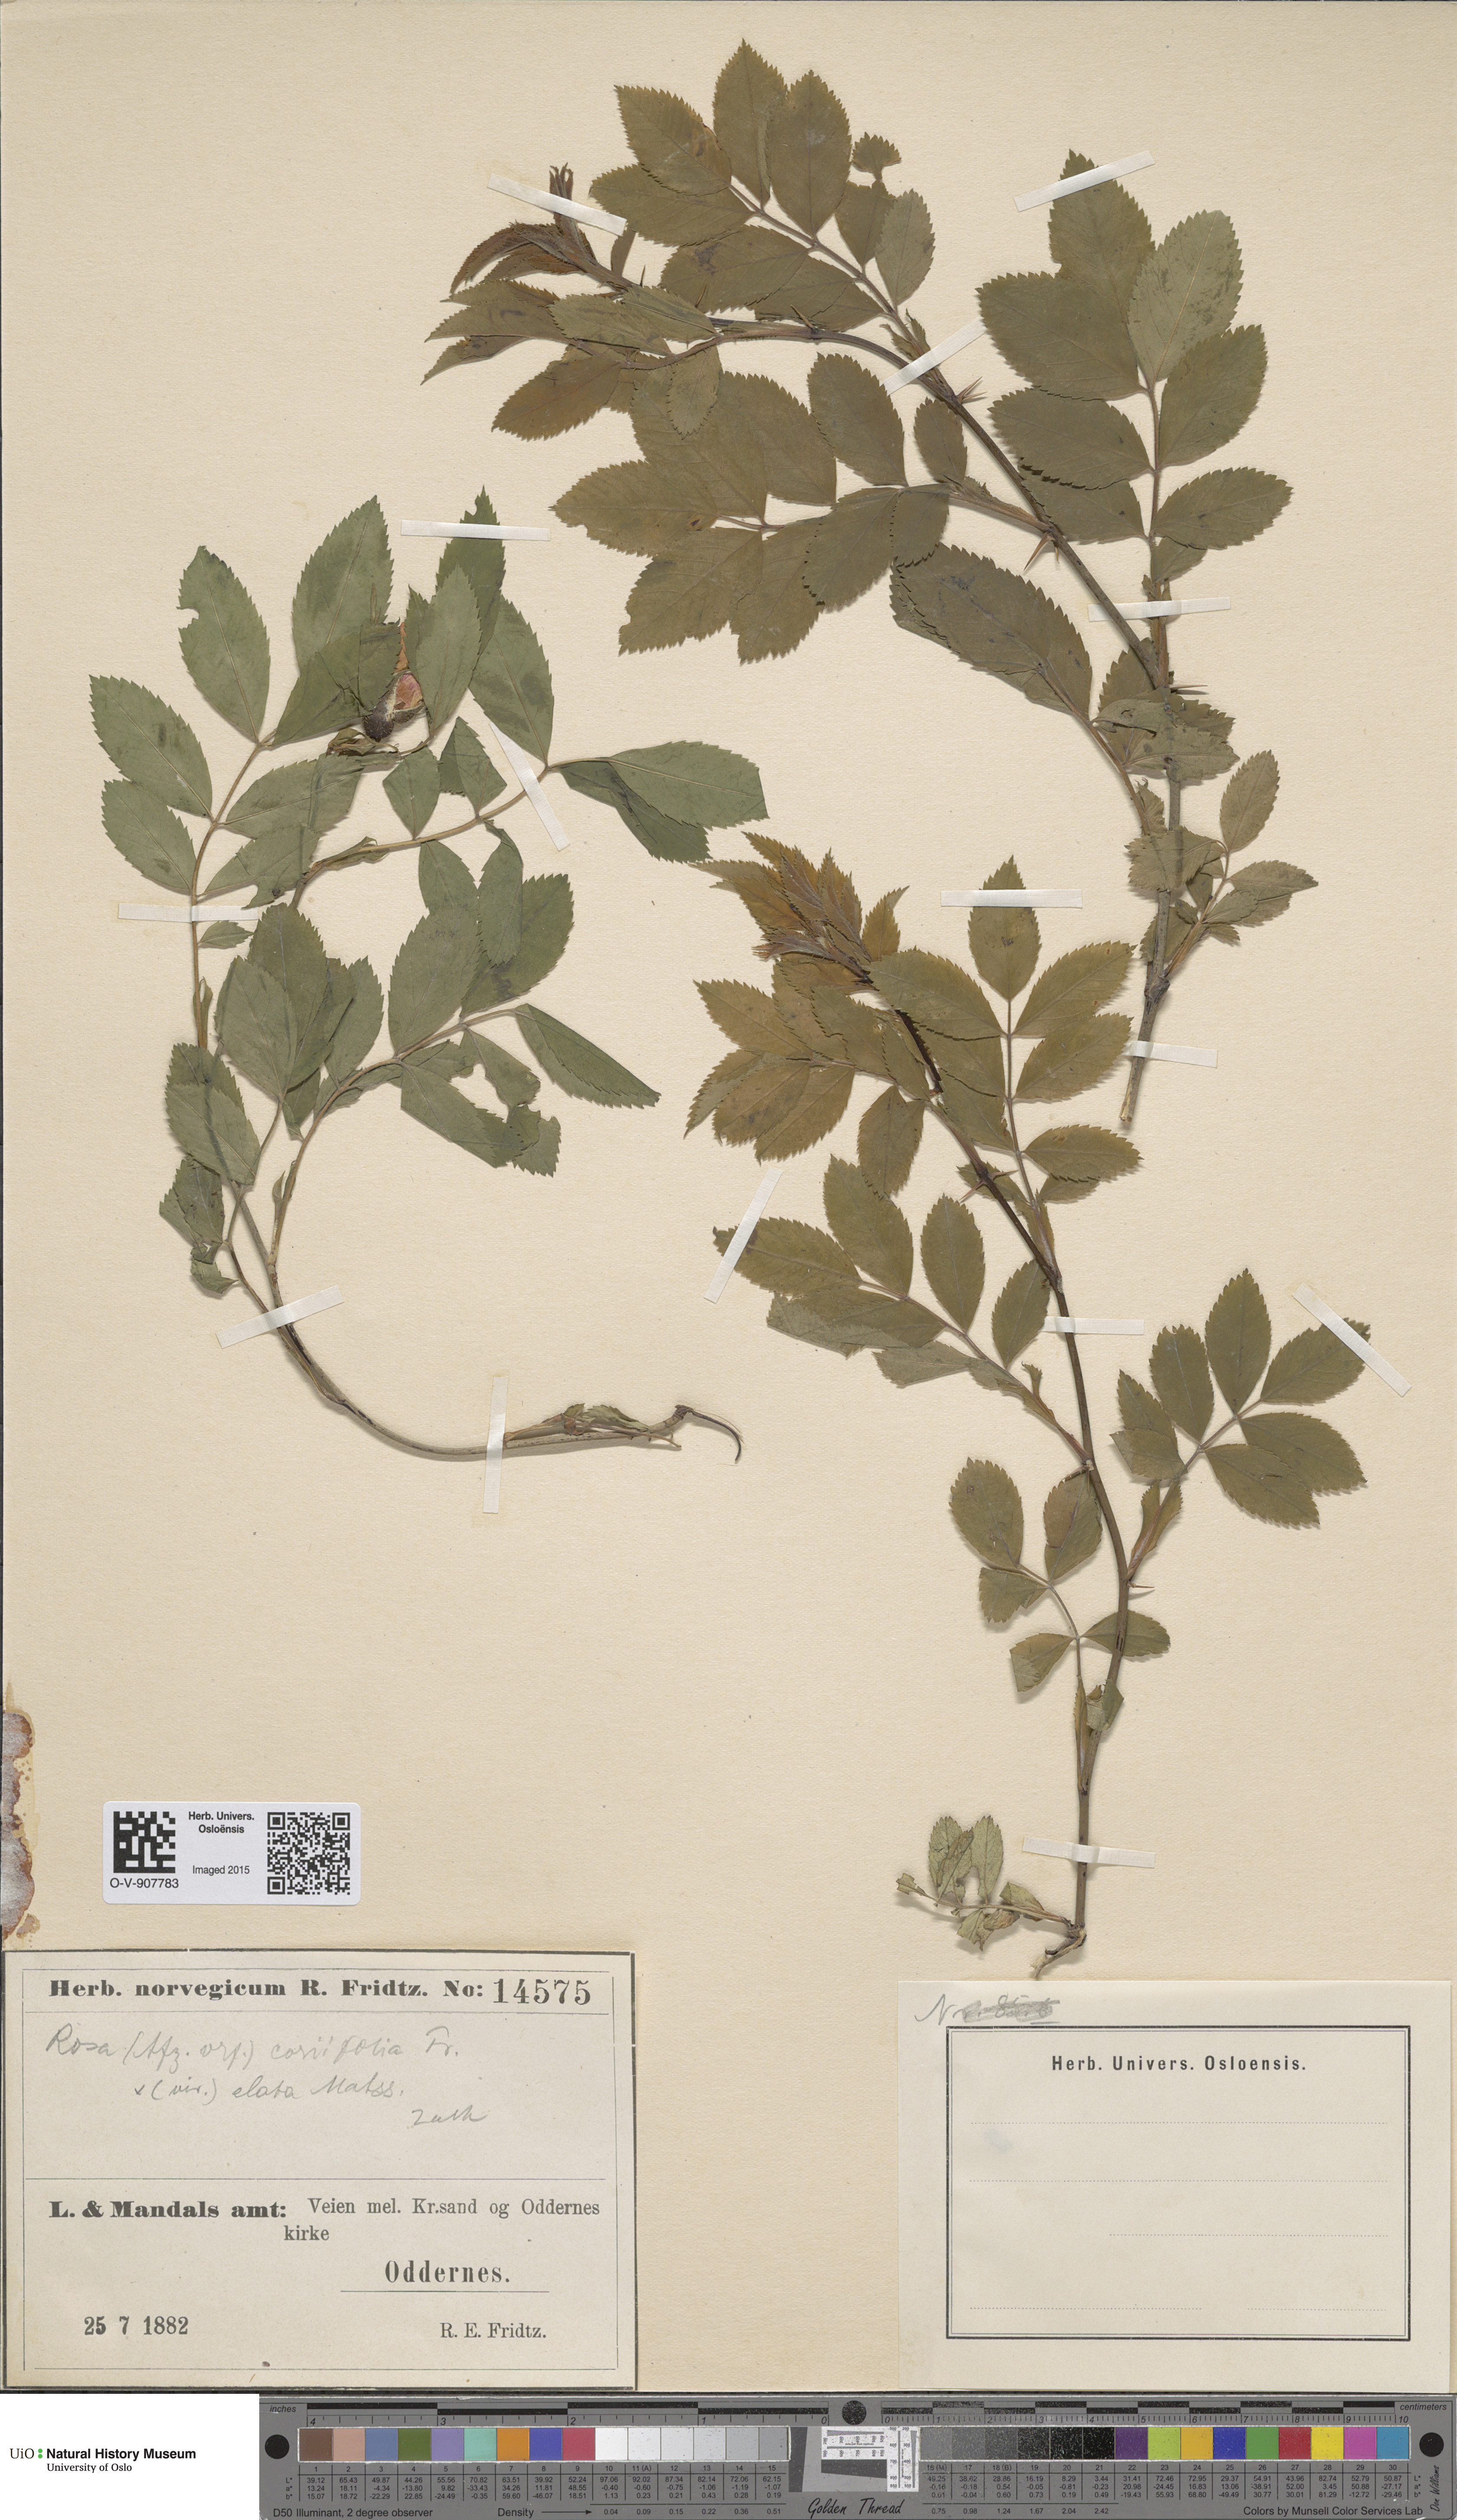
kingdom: Plantae
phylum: Tracheophyta
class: Magnoliopsida
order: Rosales
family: Rosaceae
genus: Rosa
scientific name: Rosa caesia
